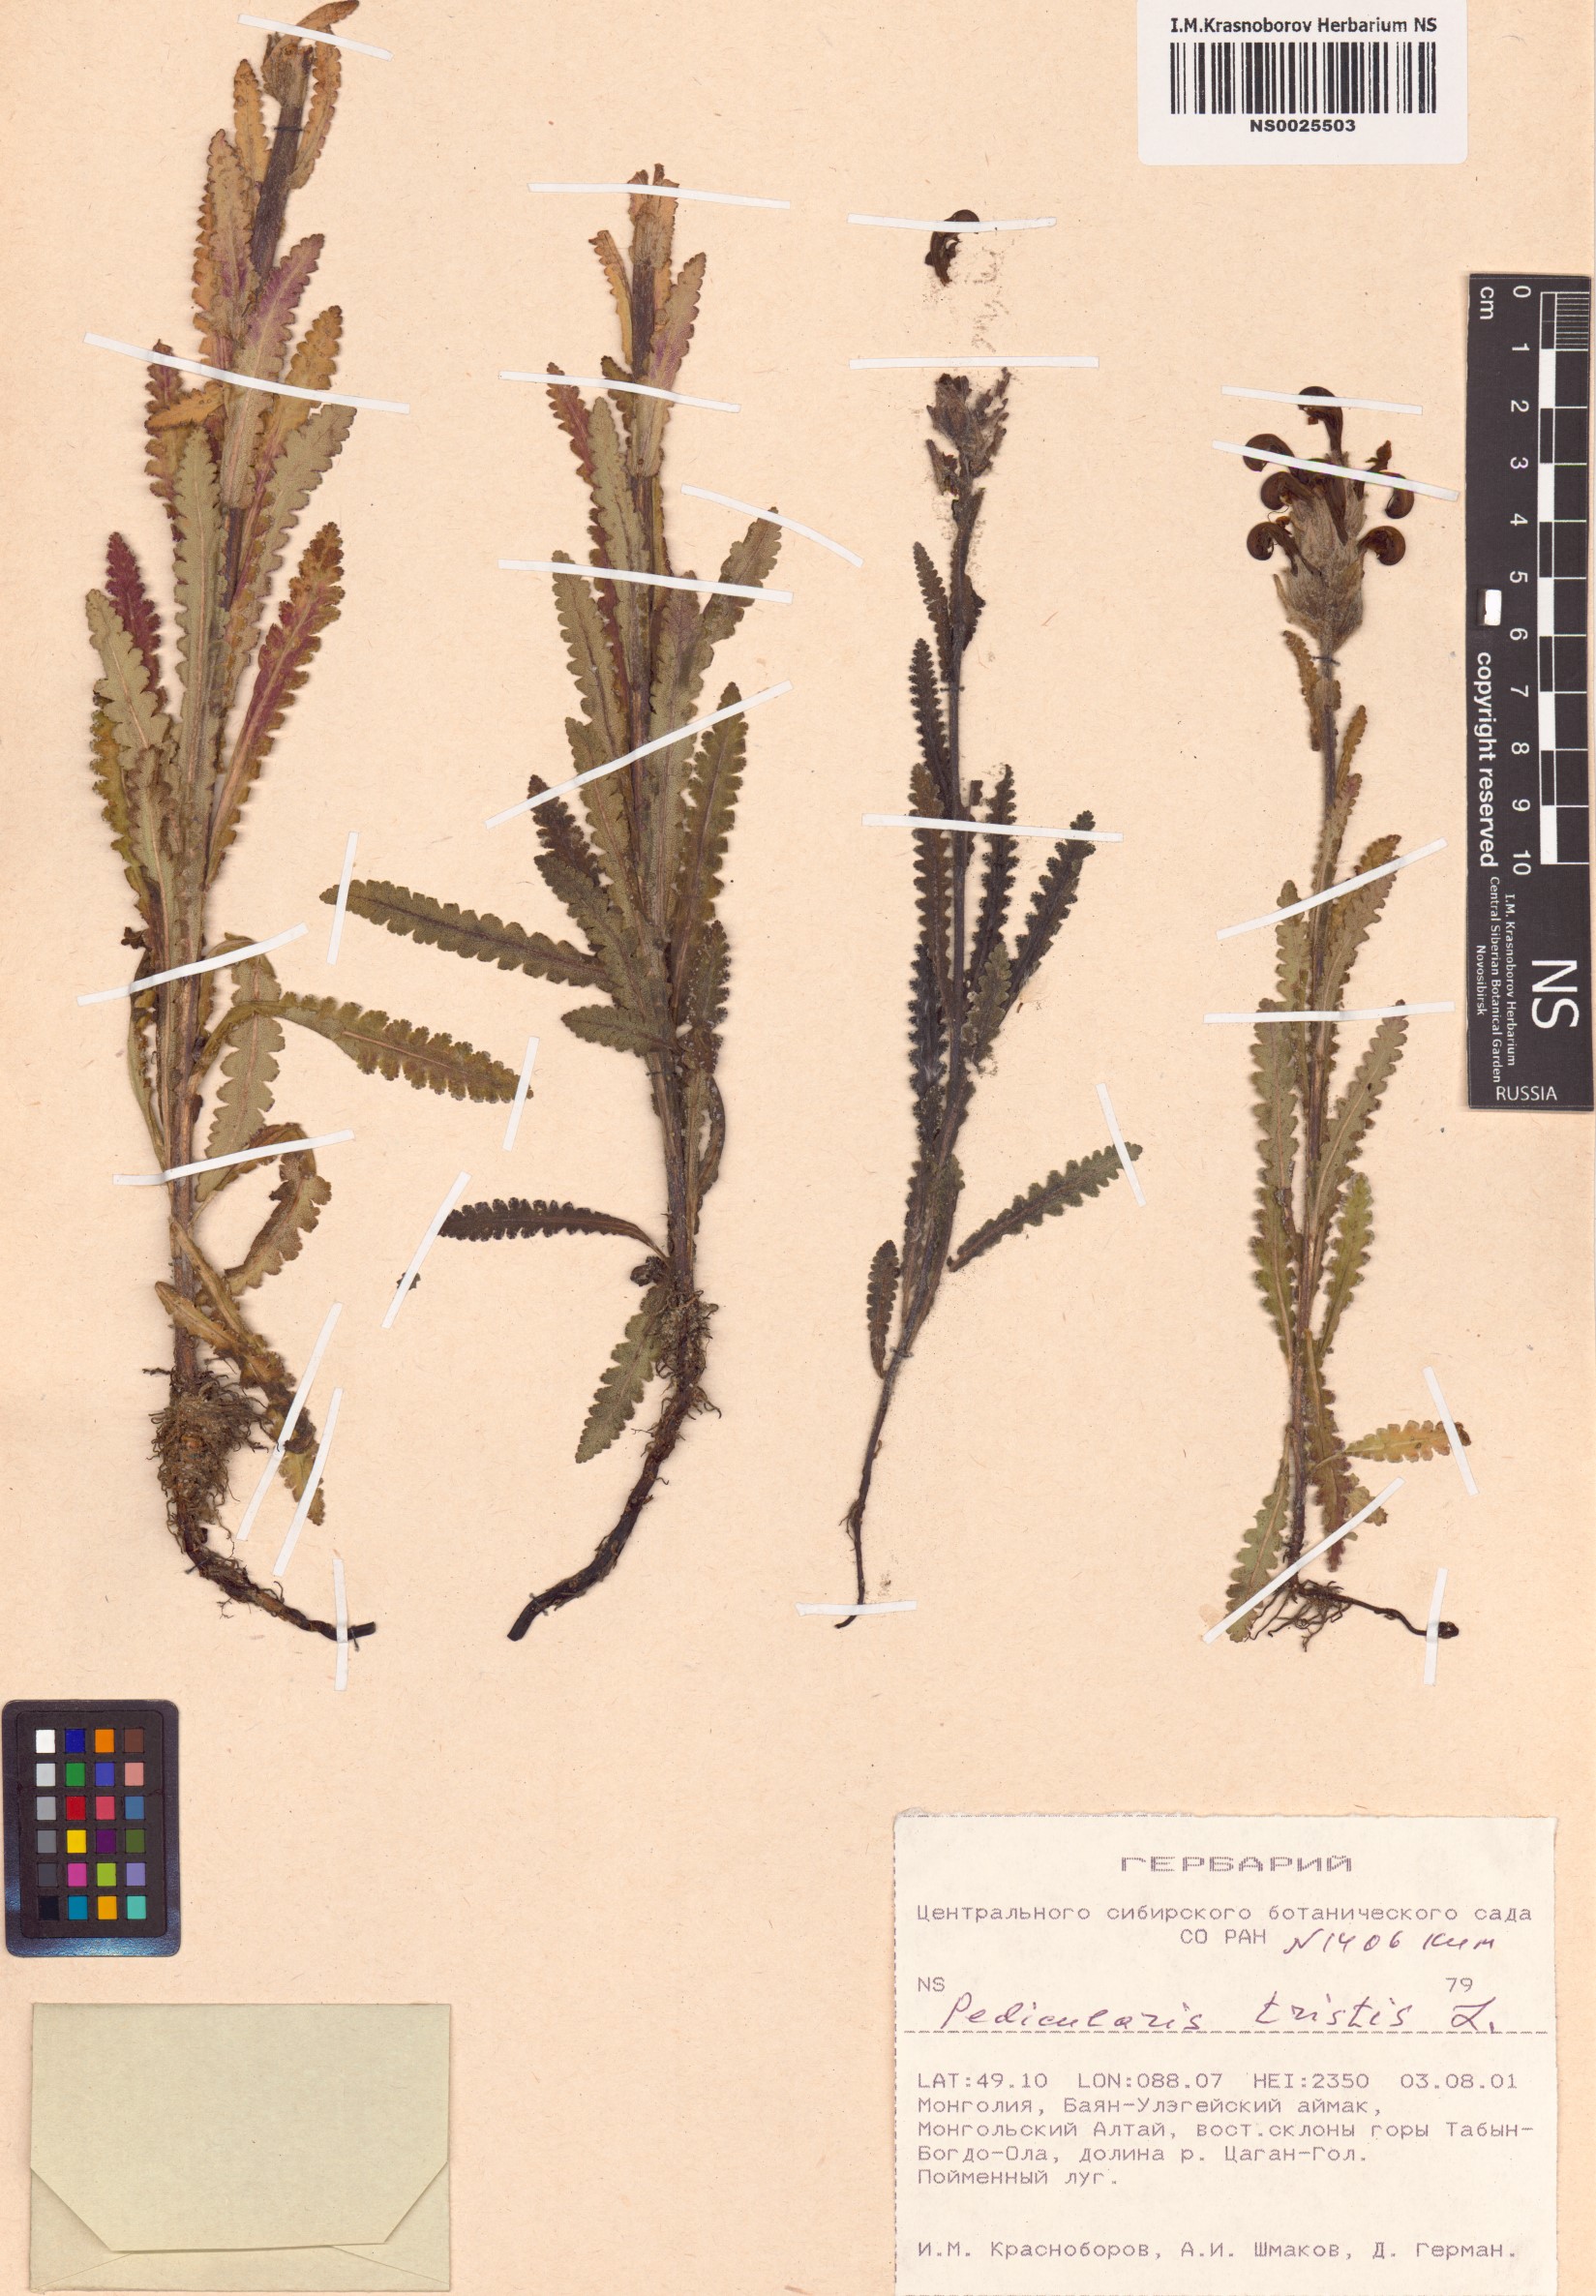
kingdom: Plantae
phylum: Tracheophyta
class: Magnoliopsida
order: Lamiales
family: Orobanchaceae
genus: Pedicularis
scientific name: Pedicularis tristis
